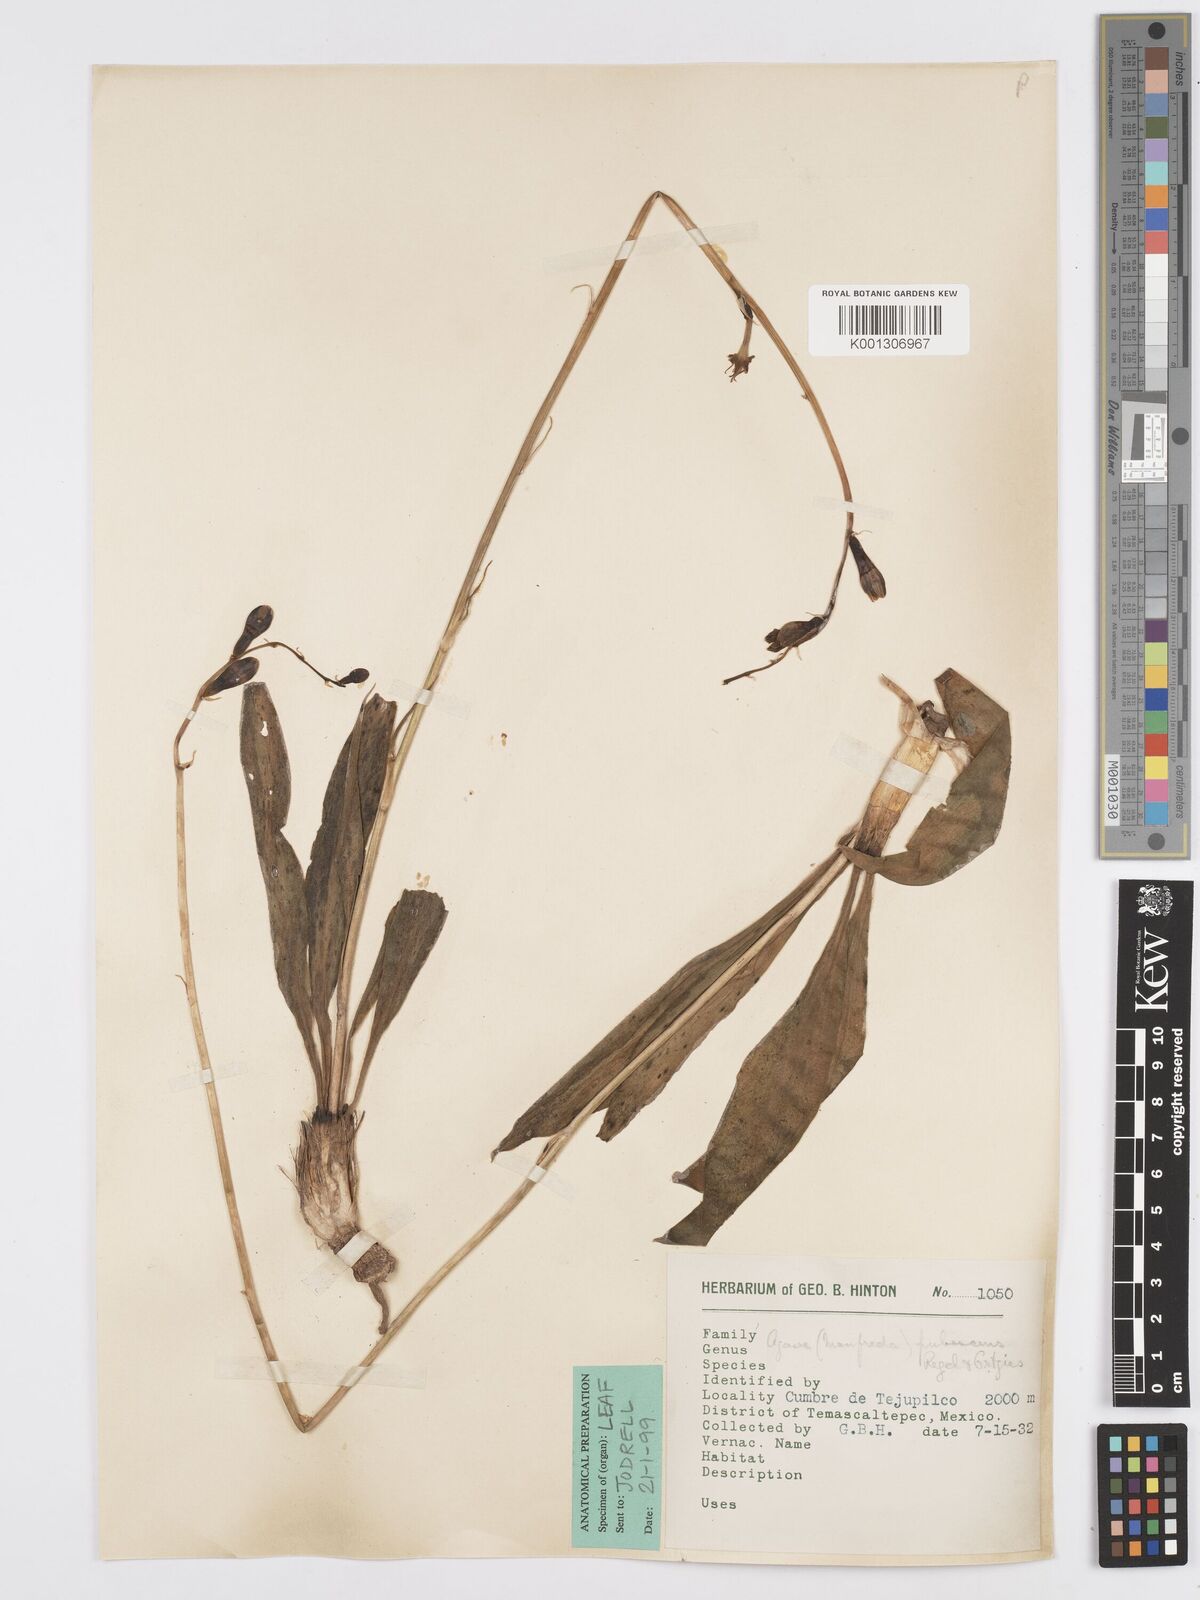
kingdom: Plantae
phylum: Tracheophyta
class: Liliopsida
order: Asparagales
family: Asparagaceae
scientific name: Asparagaceae
